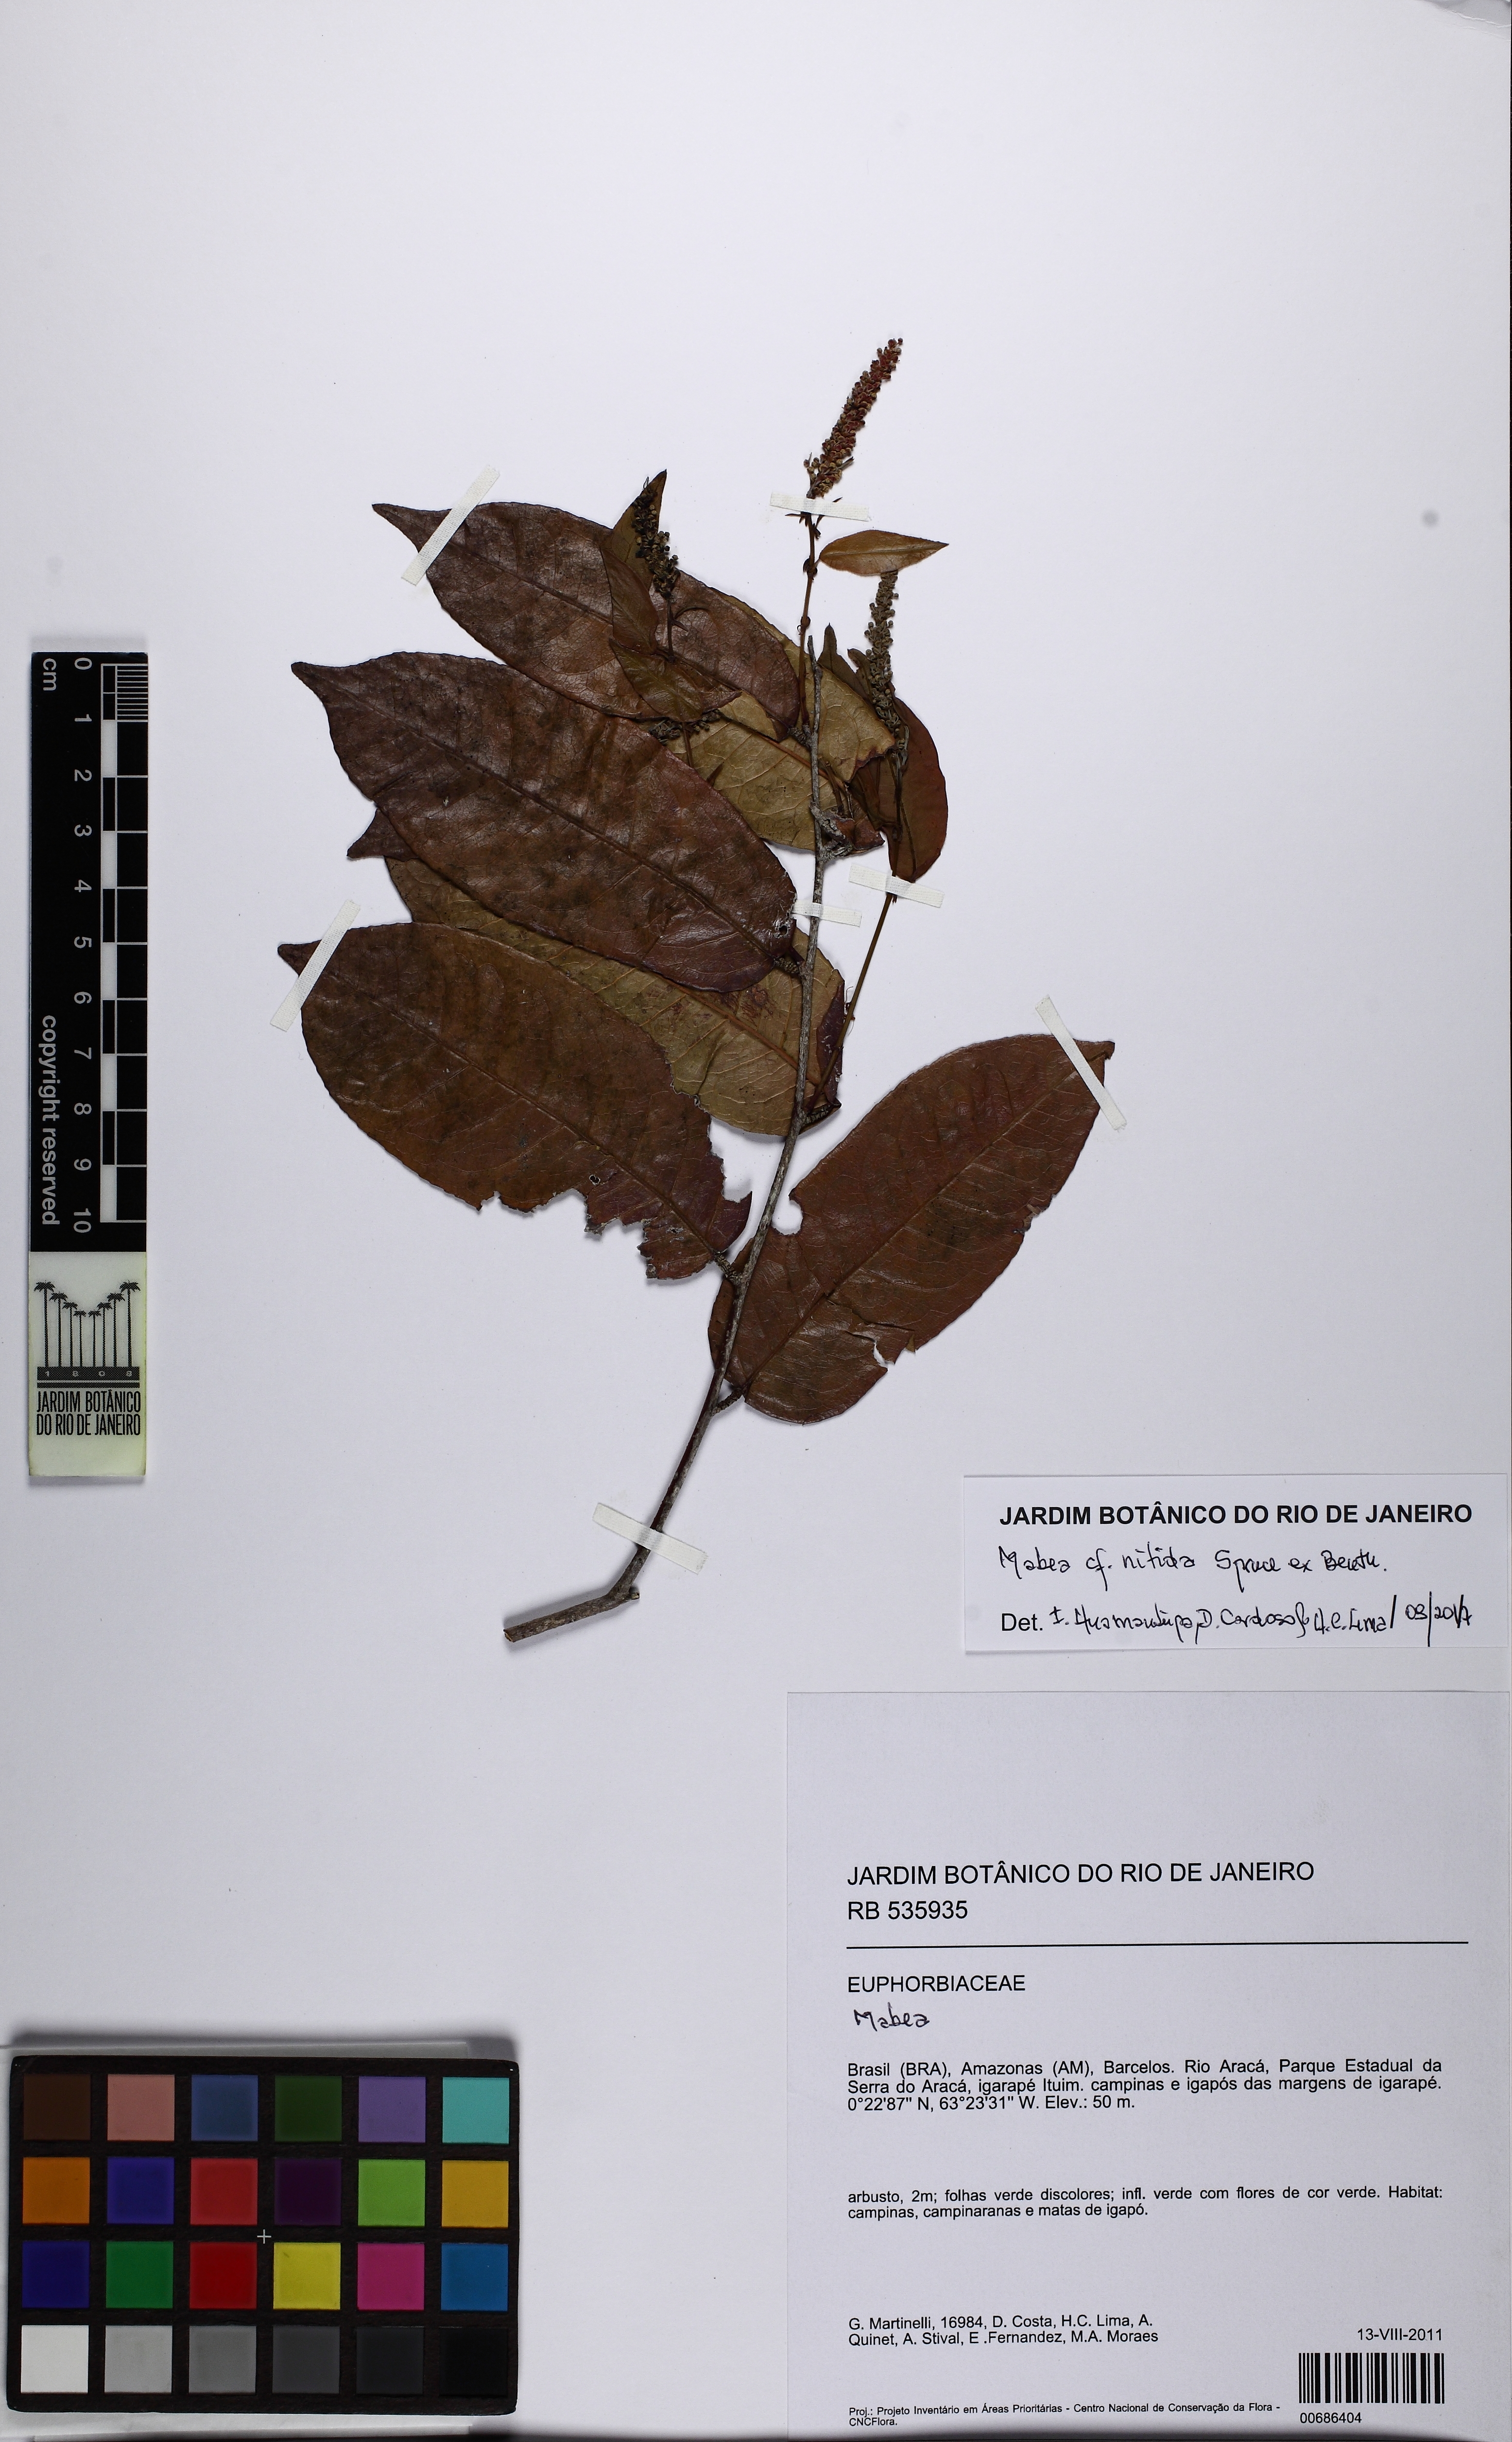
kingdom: Plantae
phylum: Tracheophyta
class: Magnoliopsida
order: Malpighiales
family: Euphorbiaceae
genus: Mabea
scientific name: Mabea nitida
